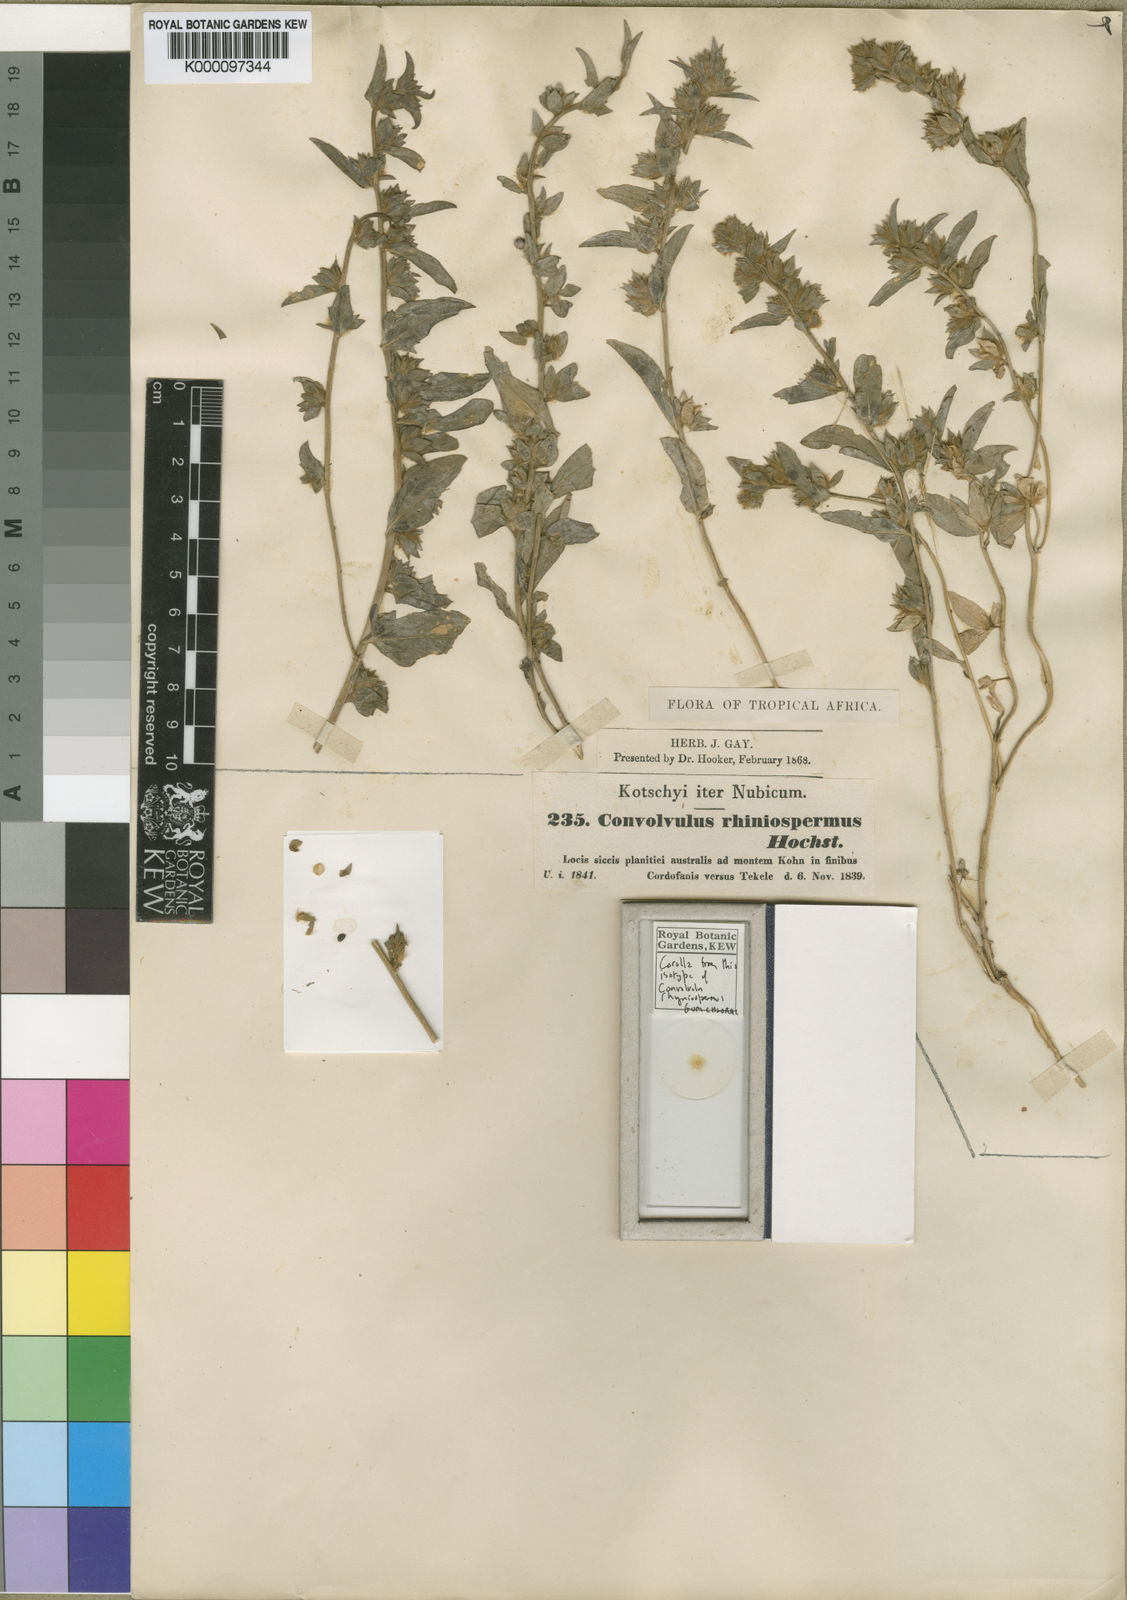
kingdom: Plantae
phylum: Tracheophyta
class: Magnoliopsida
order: Solanales
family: Convolvulaceae
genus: Convolvulus
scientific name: Convolvulus rhyniospermus
